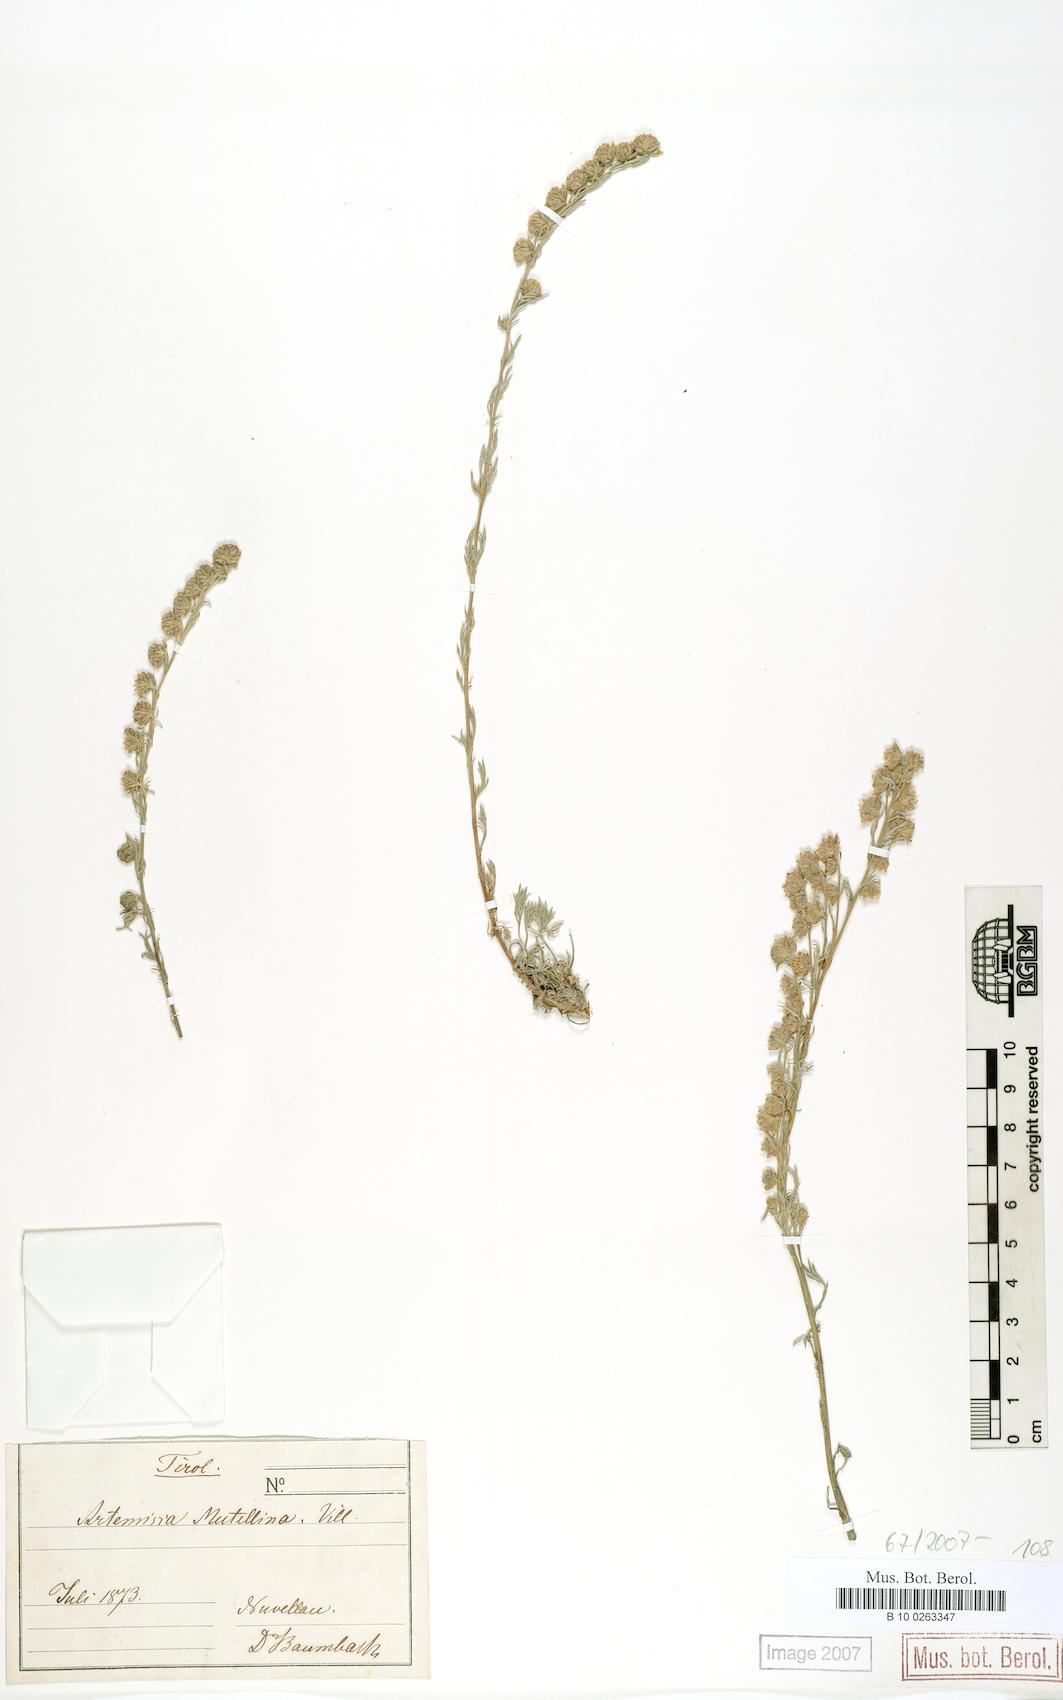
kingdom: Plantae
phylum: Tracheophyta
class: Magnoliopsida
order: Asterales
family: Asteraceae
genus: Artemisia
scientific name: Artemisia mutellina
